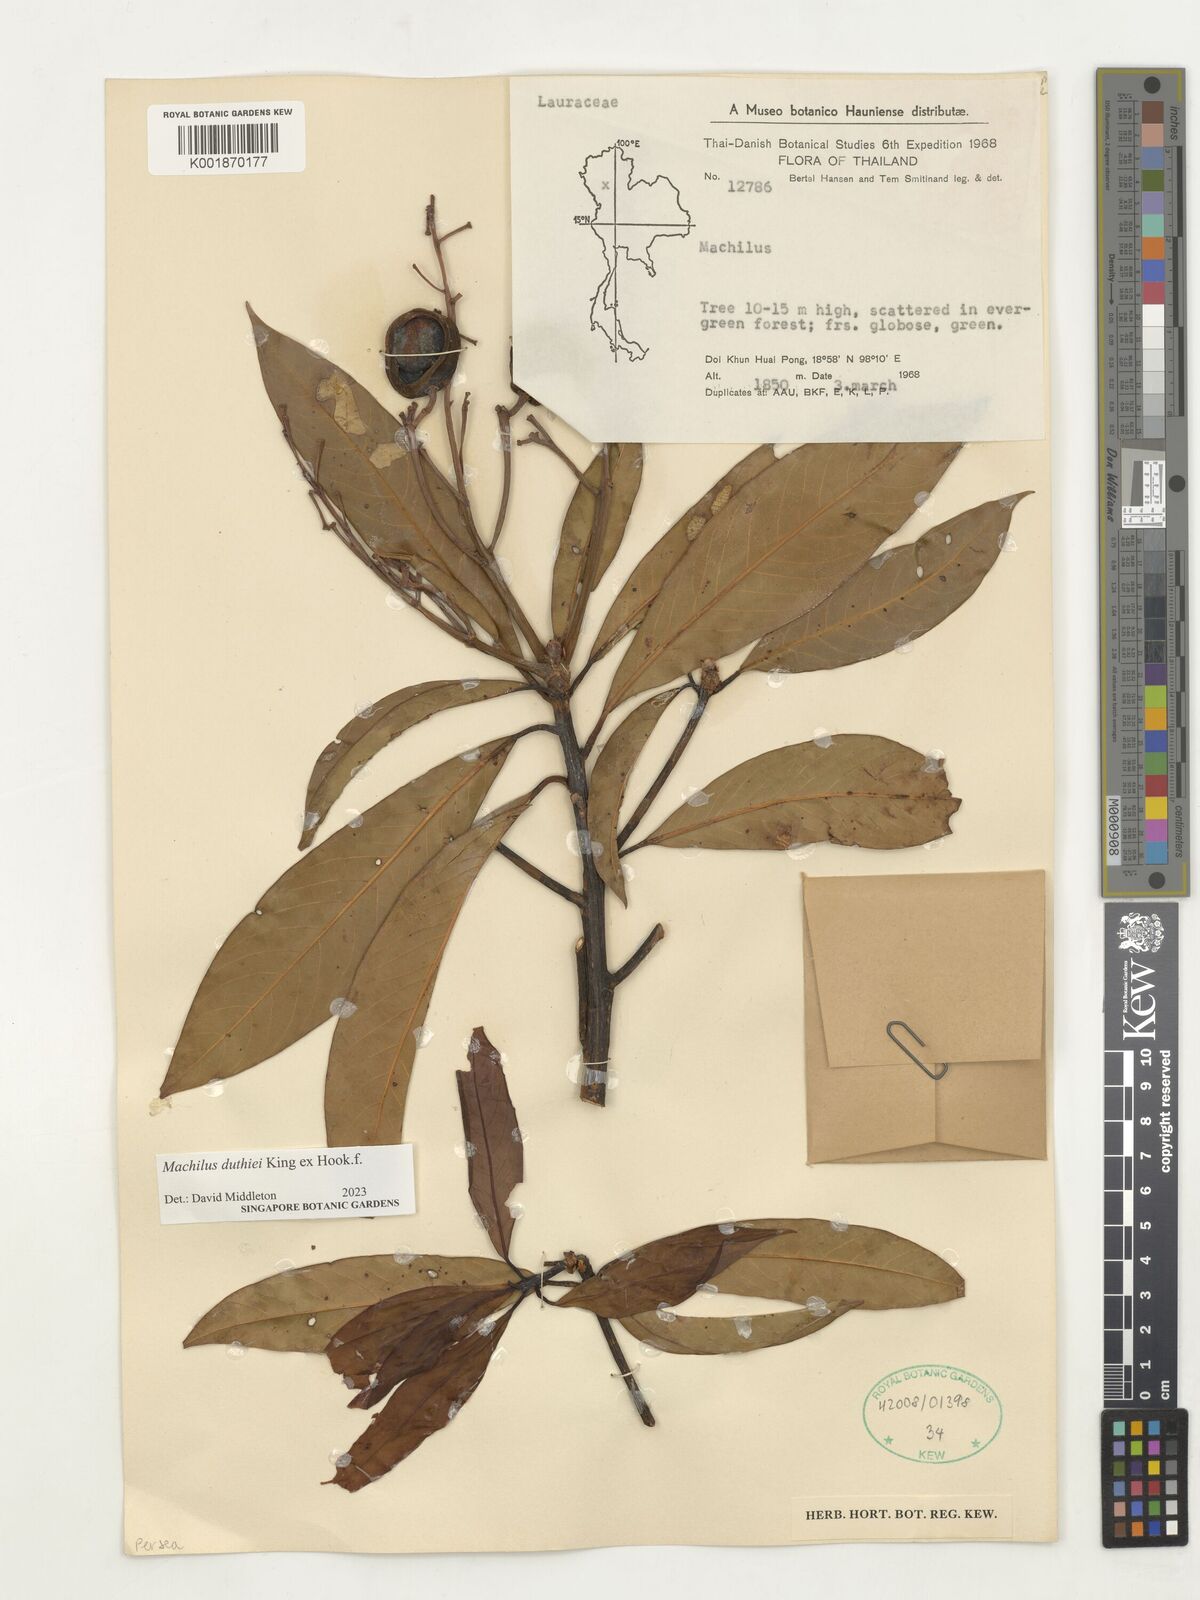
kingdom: Plantae
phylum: Tracheophyta
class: Magnoliopsida
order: Laurales
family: Lauraceae
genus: Machilus
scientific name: Machilus duthiei
